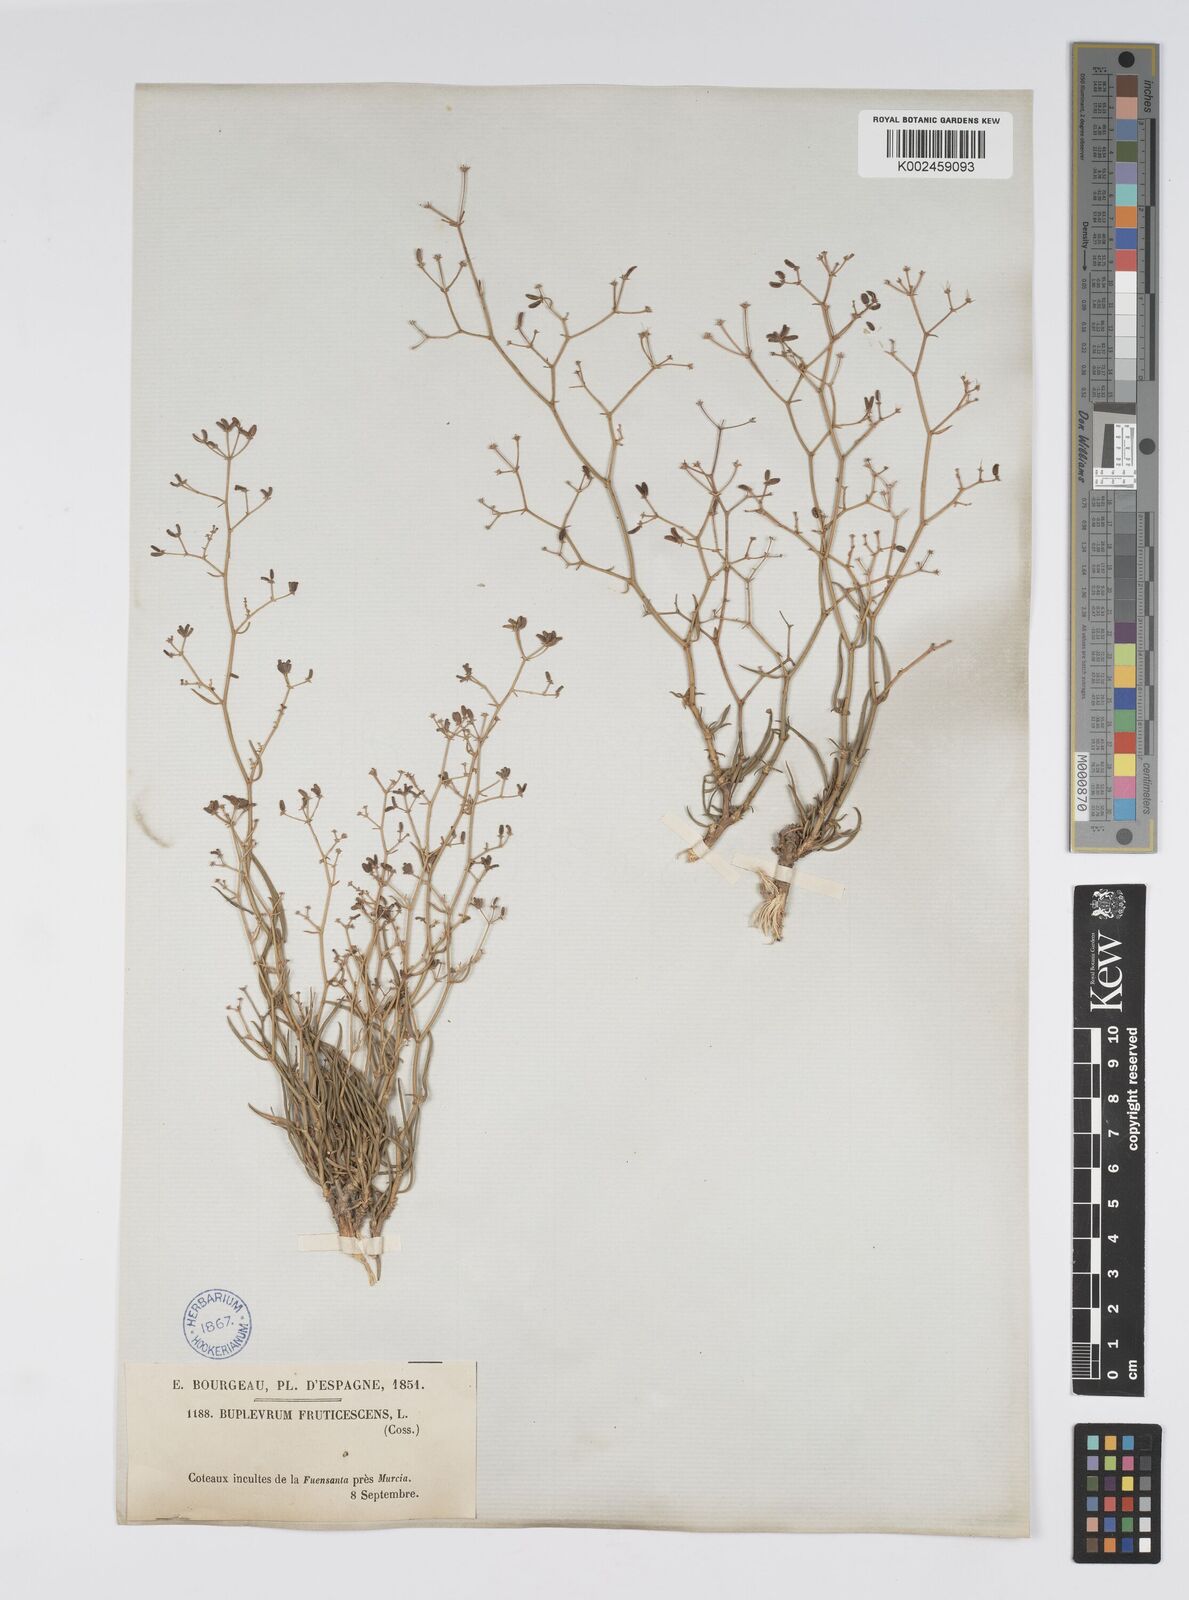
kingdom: Plantae
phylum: Tracheophyta
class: Magnoliopsida
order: Apiales
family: Apiaceae
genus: Bupleurum
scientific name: Bupleurum fruticescens
